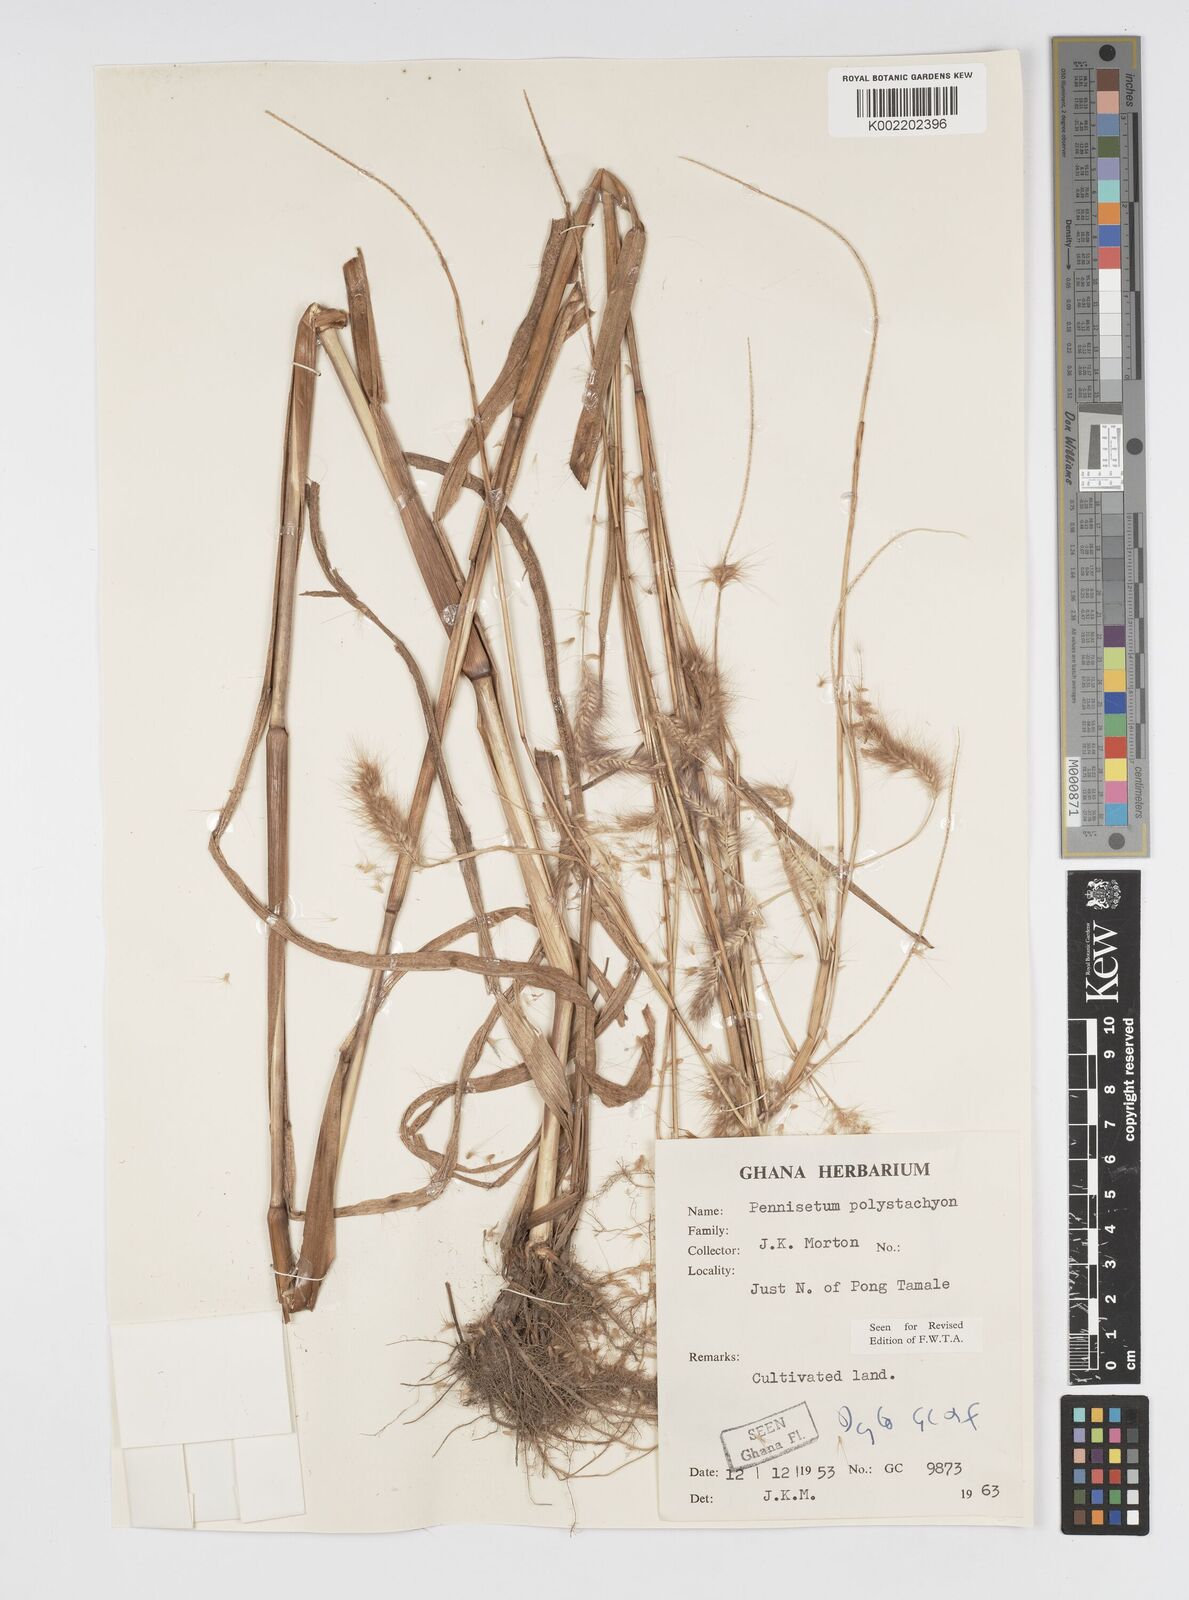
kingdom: Plantae
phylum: Tracheophyta
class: Liliopsida
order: Poales
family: Poaceae
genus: Setaria
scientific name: Setaria parviflora
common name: Knotroot bristle-grass
